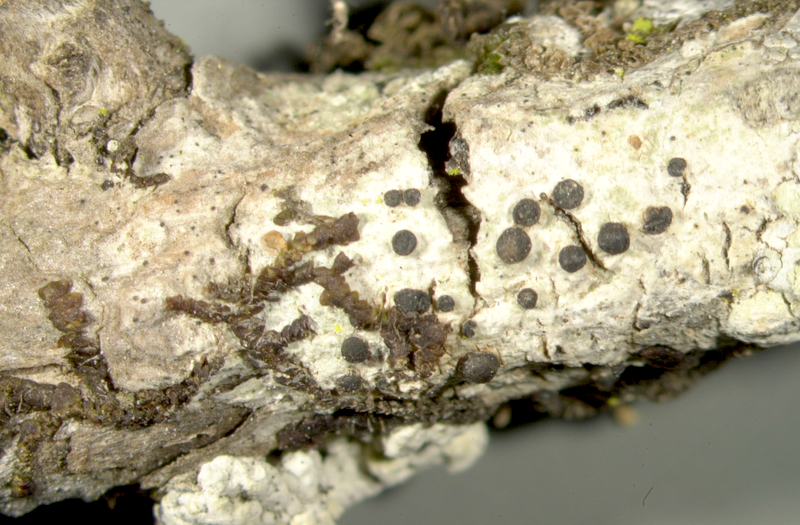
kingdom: Fungi
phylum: Ascomycota
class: Lecanoromycetes
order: Caliciales
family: Caliciaceae
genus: Buellia
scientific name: Buellia
